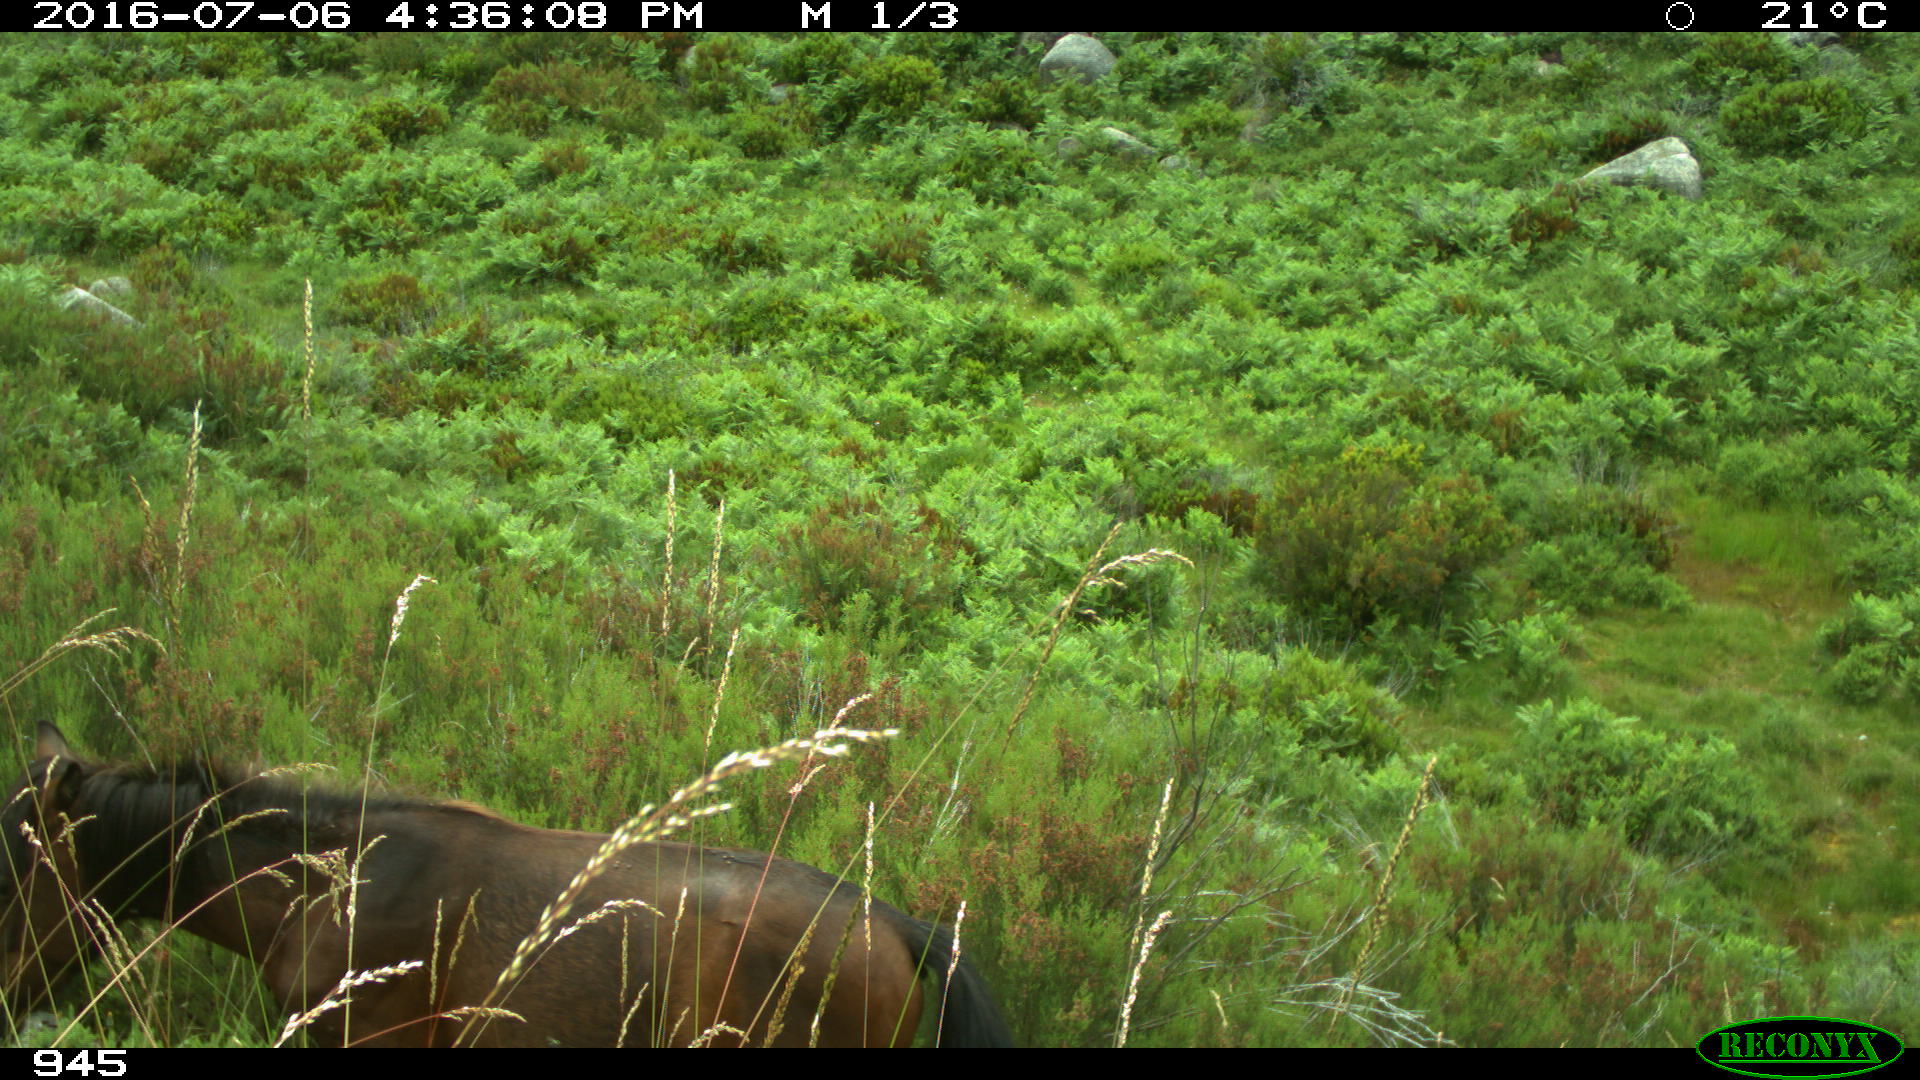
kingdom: Animalia
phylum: Chordata
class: Mammalia
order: Perissodactyla
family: Equidae
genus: Equus
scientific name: Equus caballus
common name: Horse
